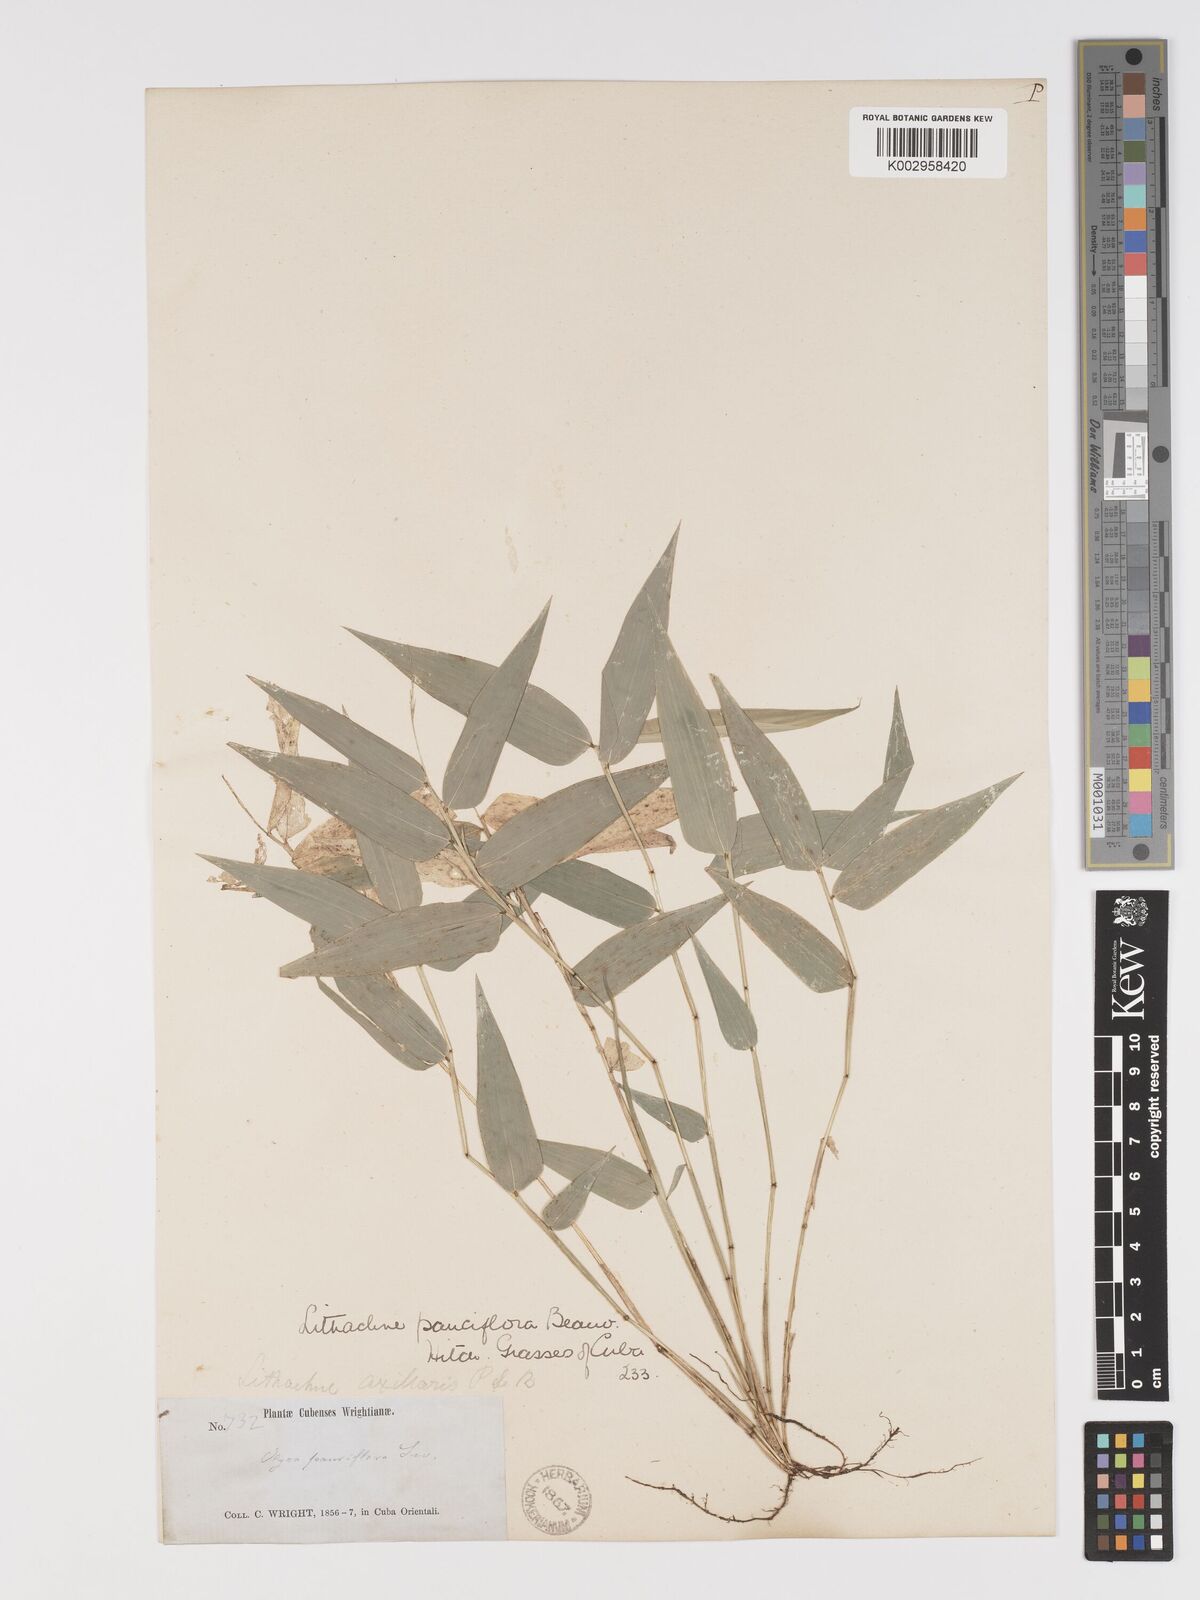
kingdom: Plantae
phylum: Tracheophyta
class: Liliopsida
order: Poales
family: Poaceae
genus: Lithachne
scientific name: Lithachne pauciflora
